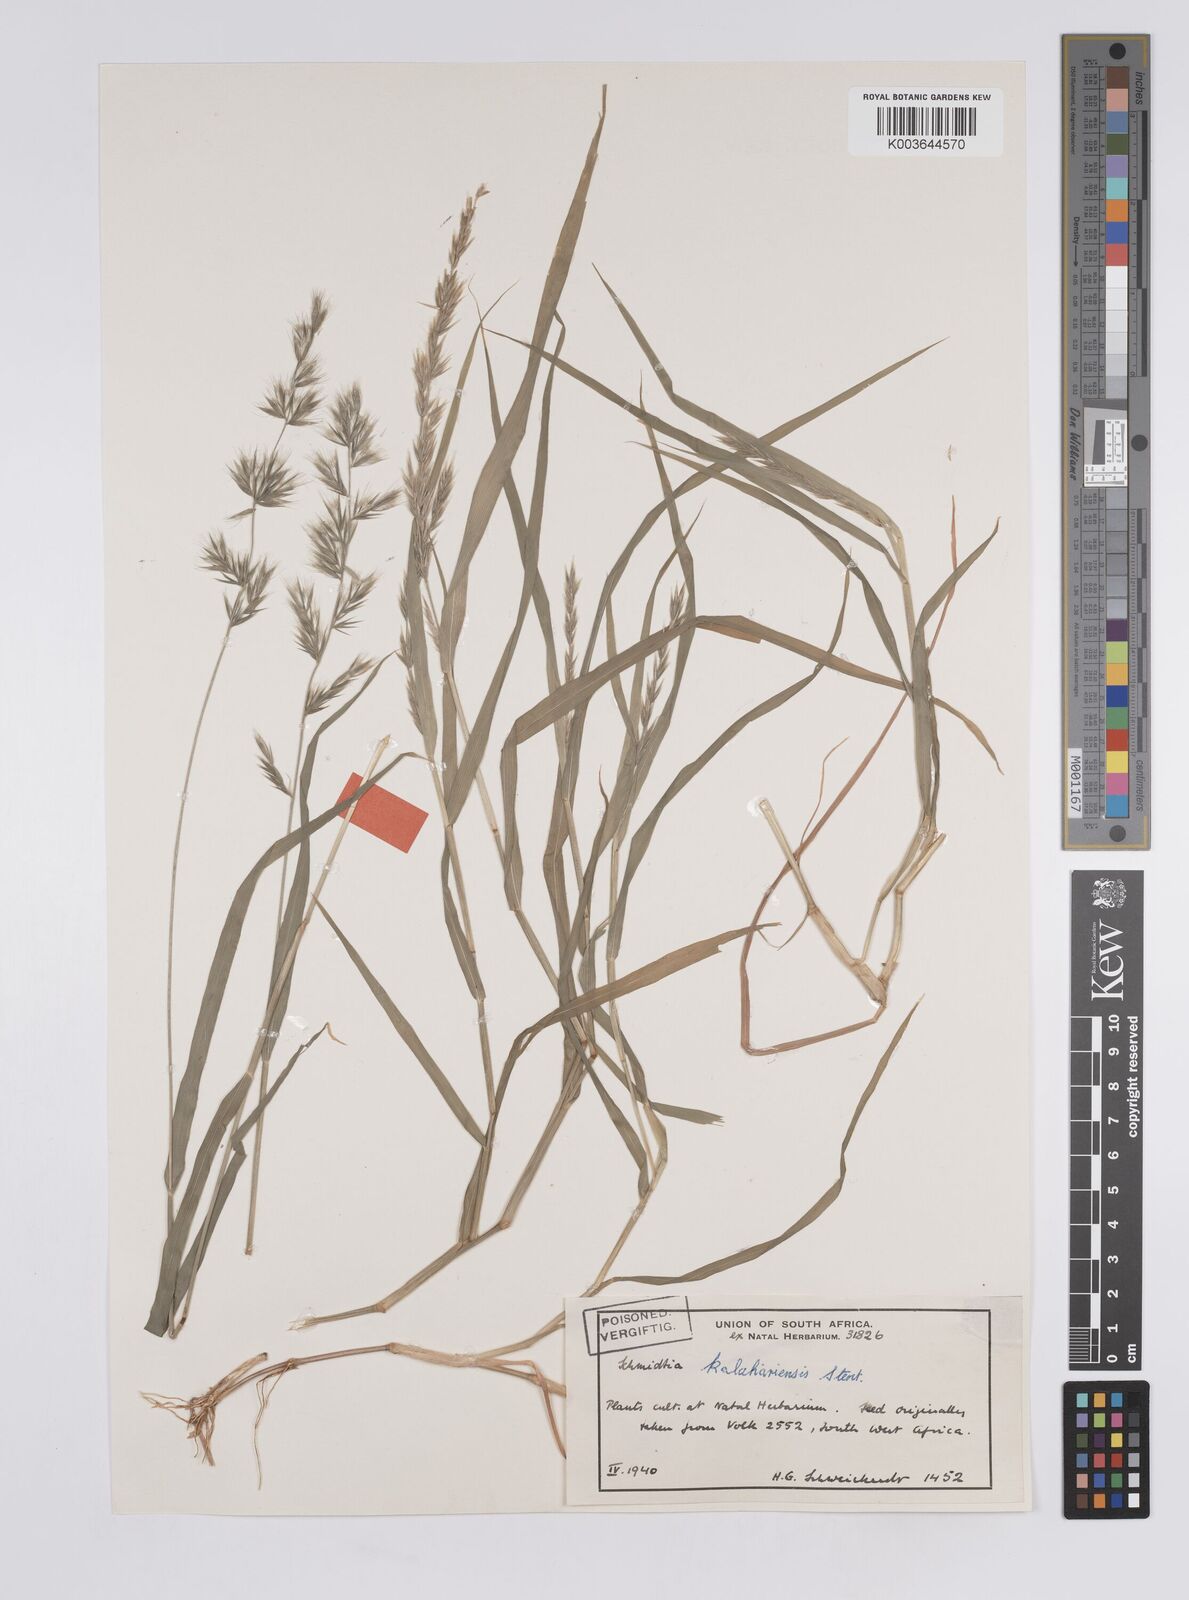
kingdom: Plantae
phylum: Tracheophyta
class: Liliopsida
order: Poales
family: Poaceae
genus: Schmidtia
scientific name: Schmidtia kalahariensis
